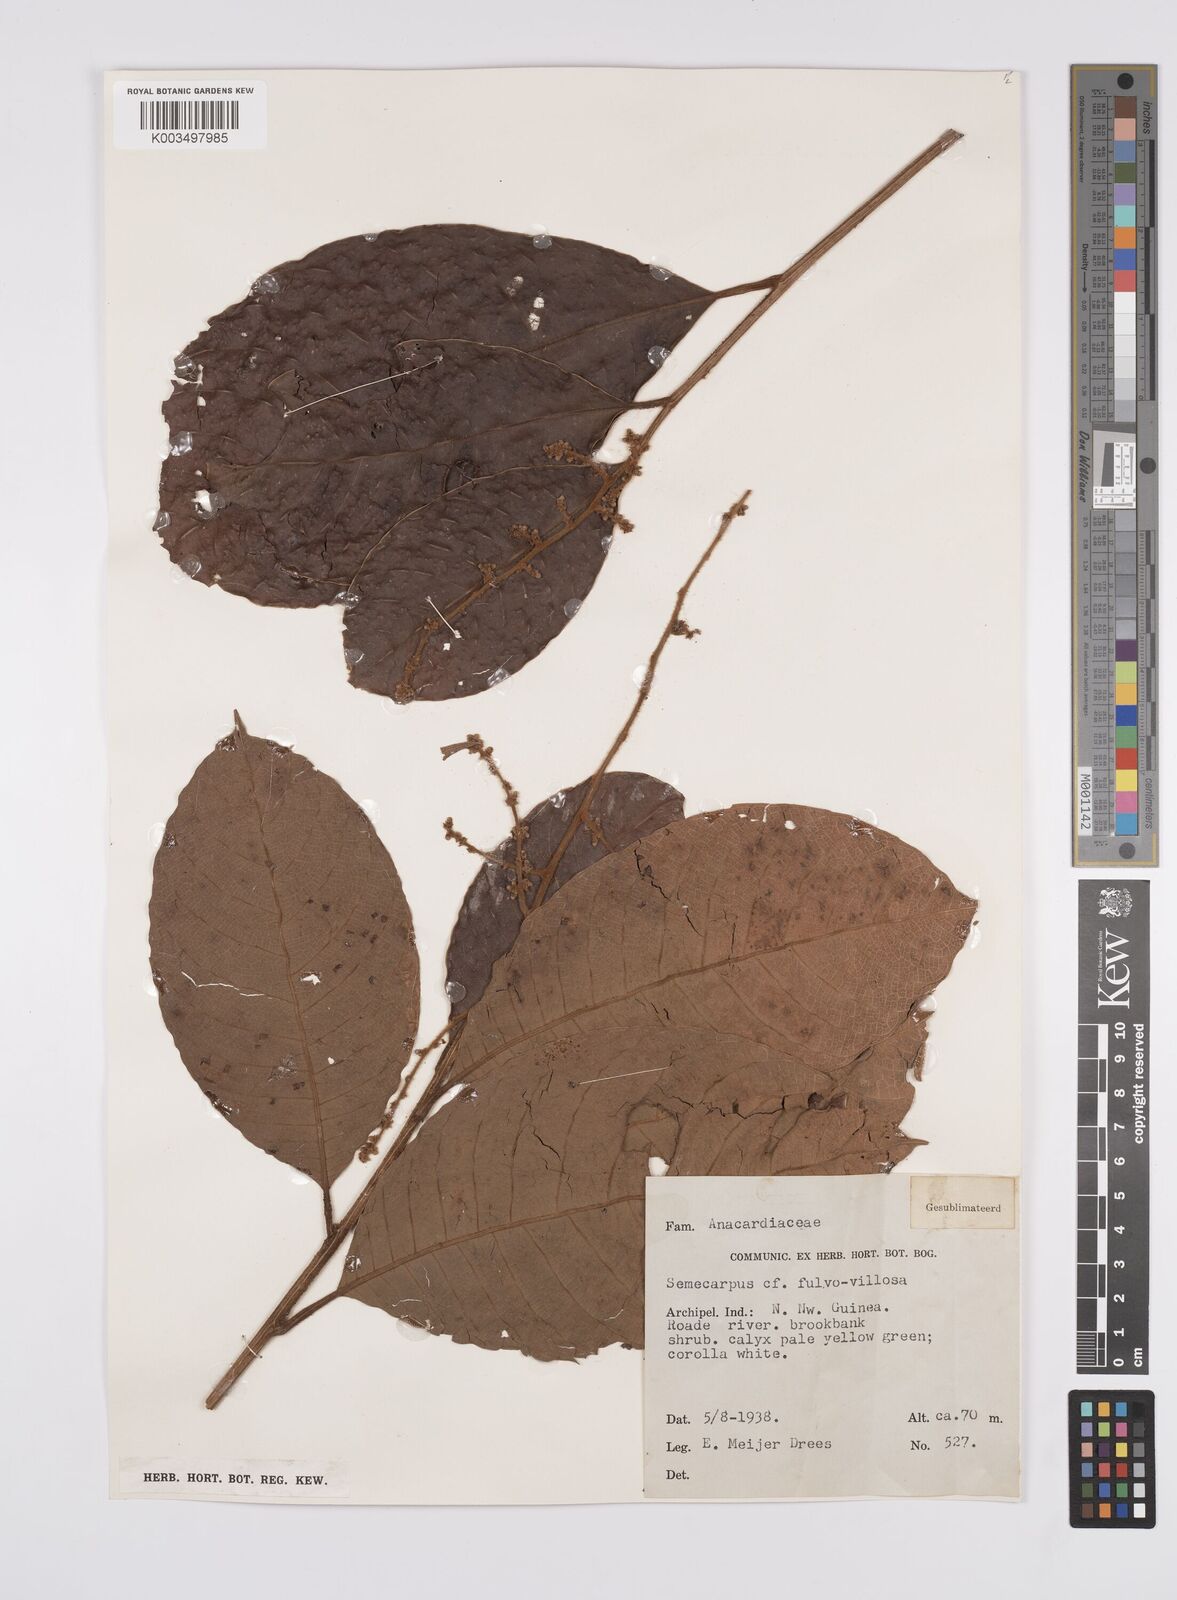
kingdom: Plantae
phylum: Tracheophyta
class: Magnoliopsida
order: Sapindales
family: Anacardiaceae
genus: Semecarpus
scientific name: Semecarpus aruensis
